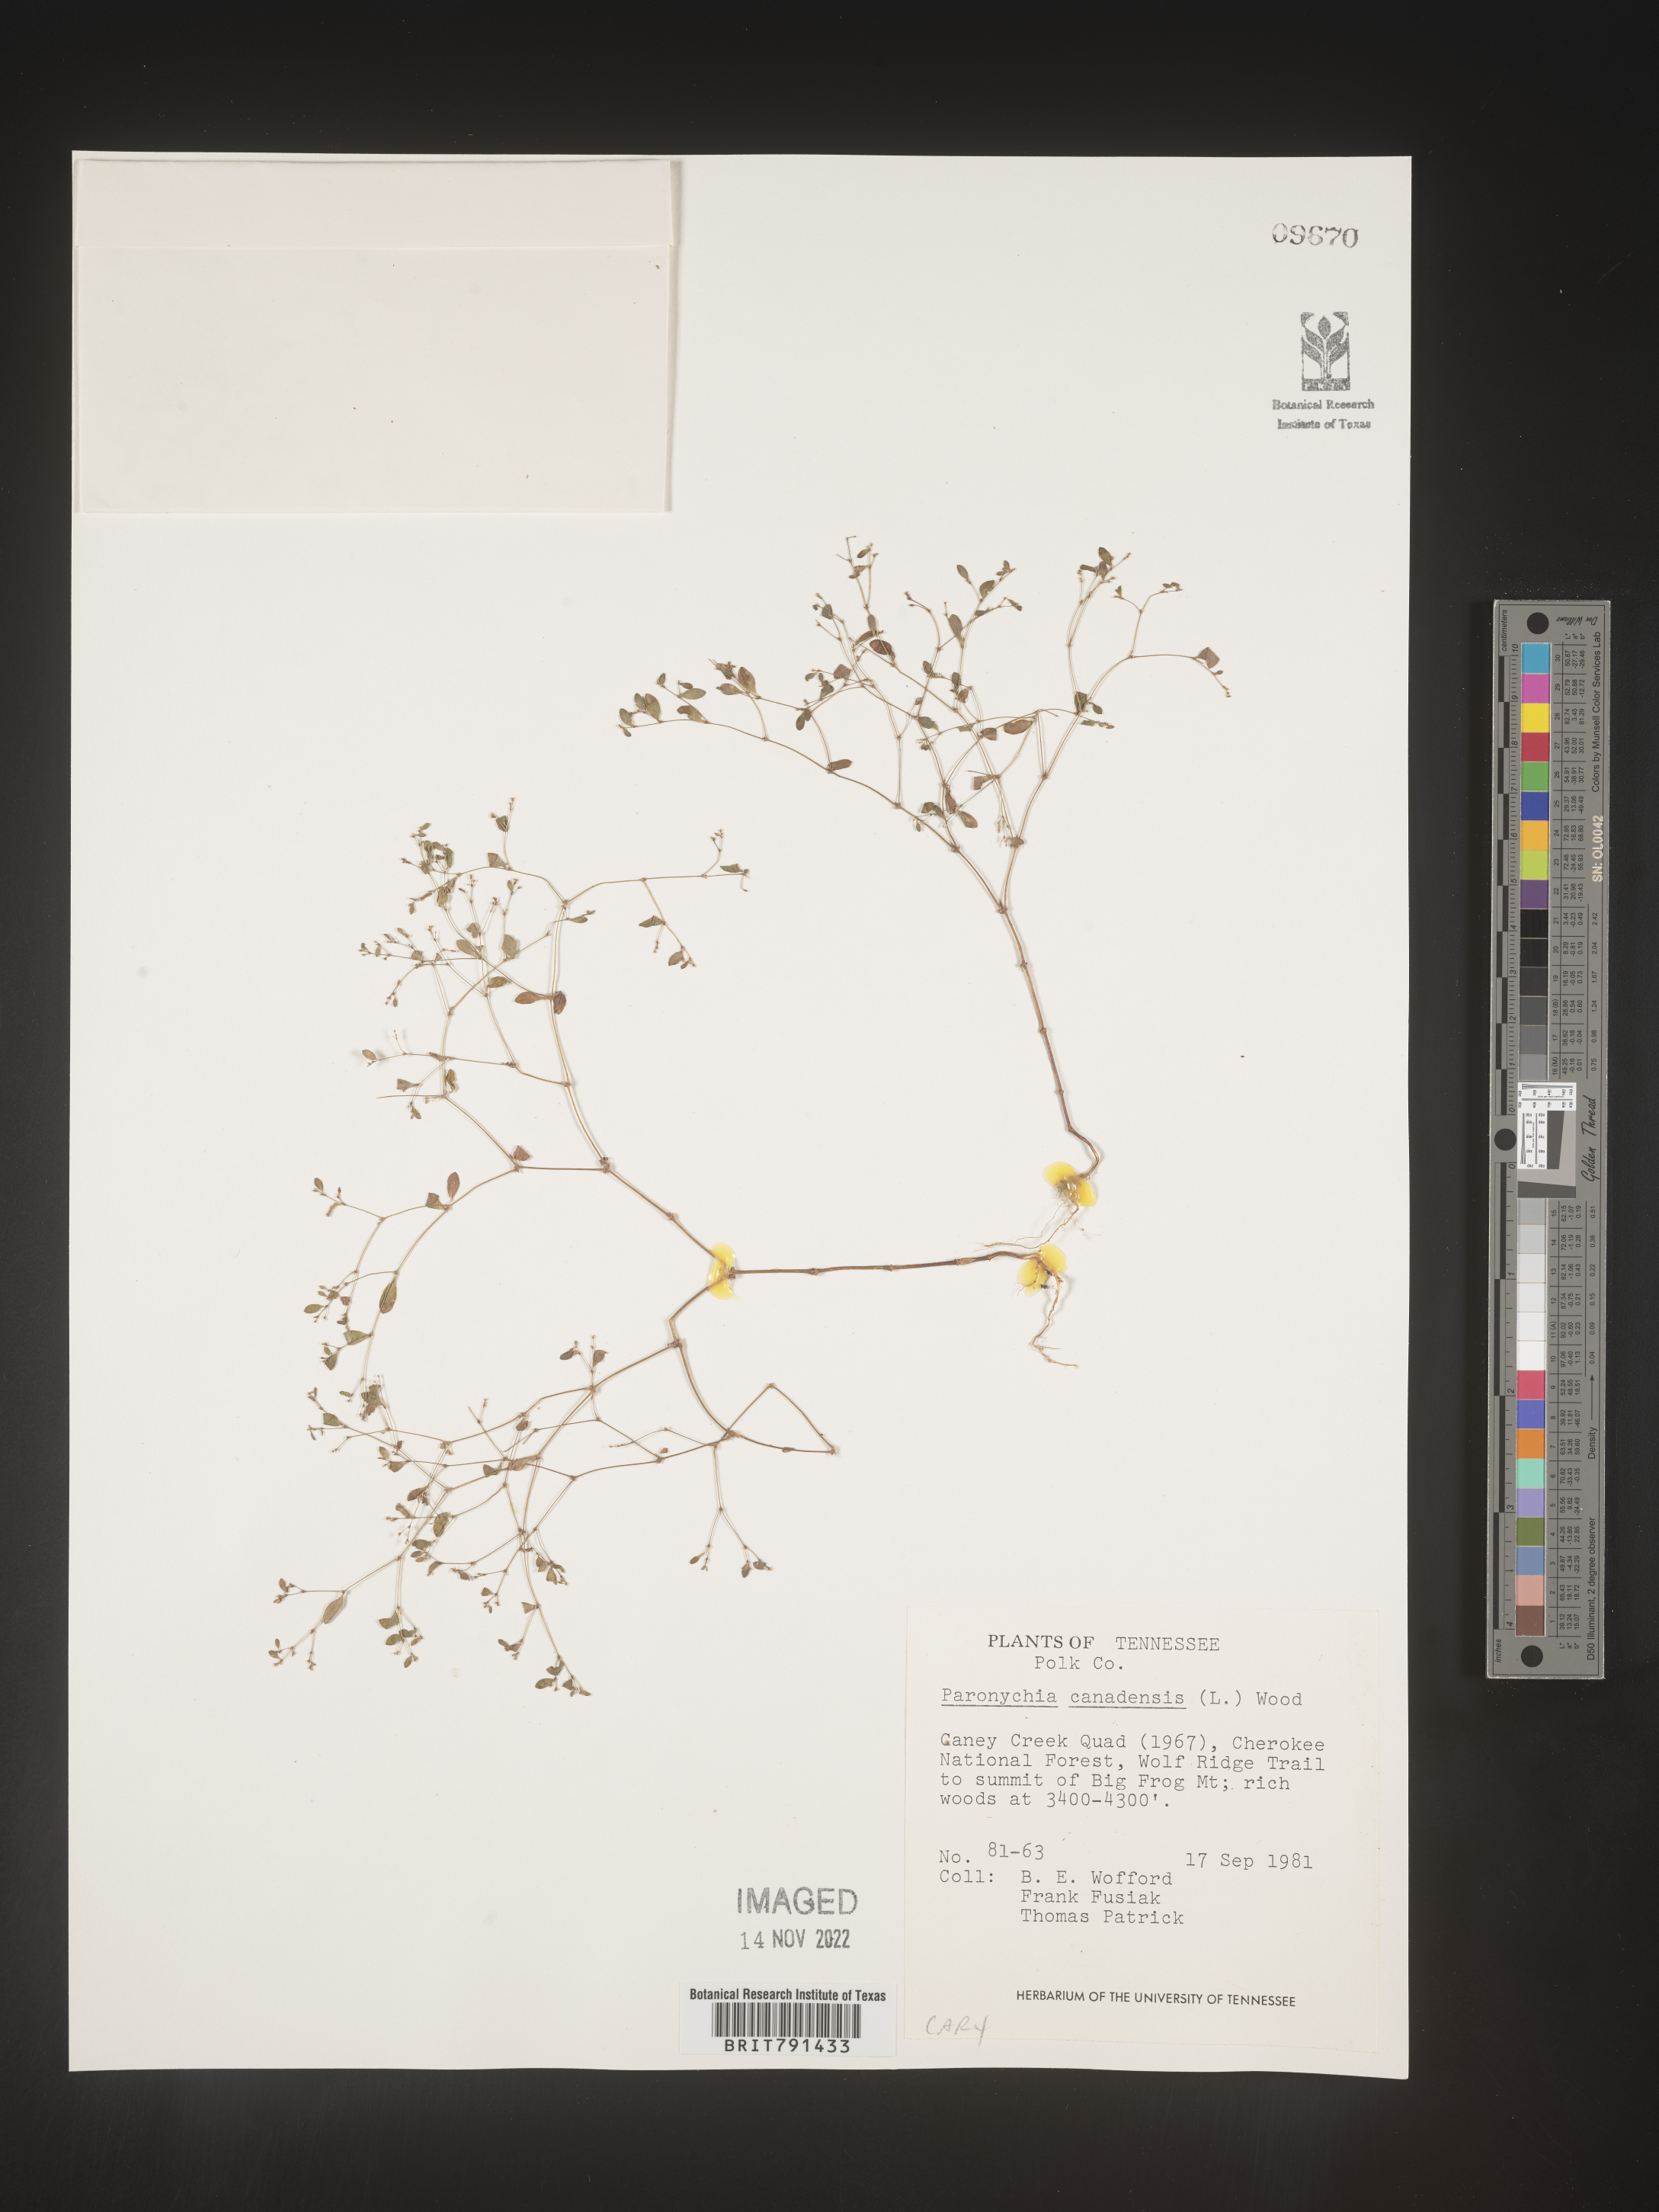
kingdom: Plantae
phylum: Tracheophyta
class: Magnoliopsida
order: Caryophyllales
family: Caryophyllaceae
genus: Paronychia
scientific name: Paronychia canadensis
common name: Canada forked nailwort
